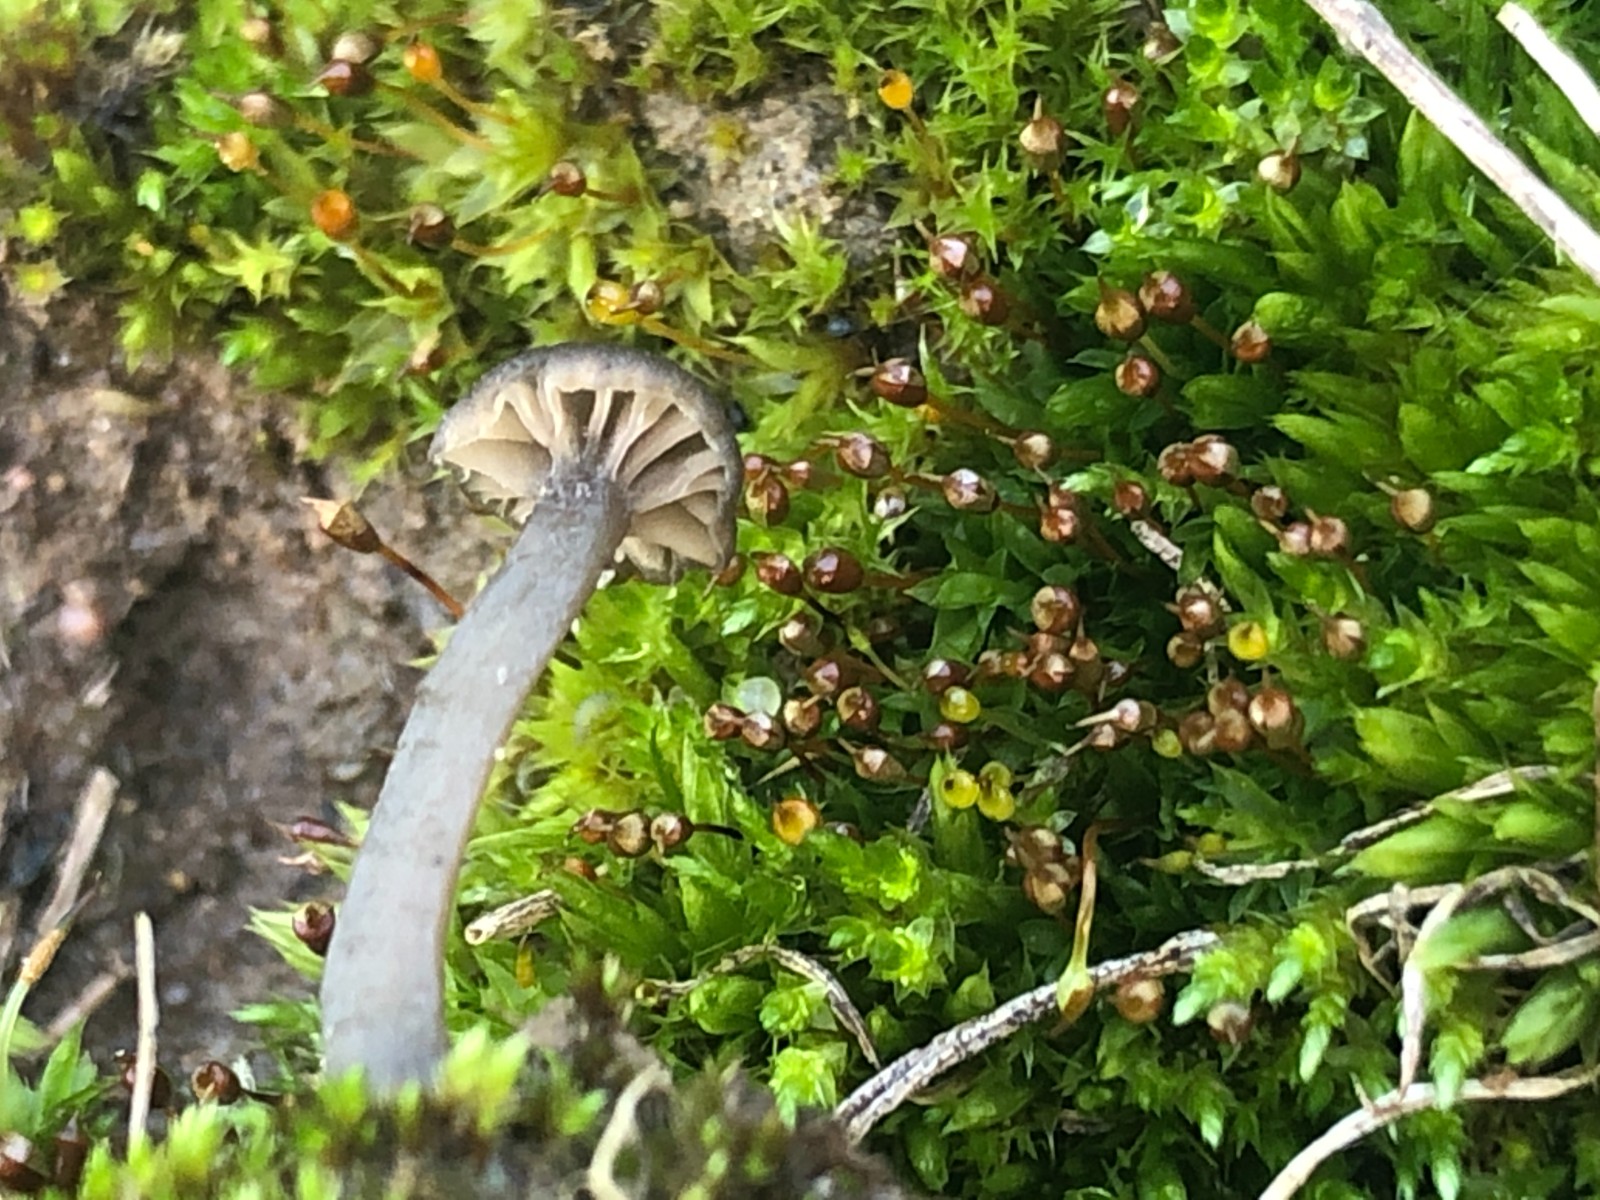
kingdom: Fungi
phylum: Basidiomycota
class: Agaricomycetes
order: Agaricales
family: Entolomataceae
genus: Entoloma
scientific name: Entoloma
